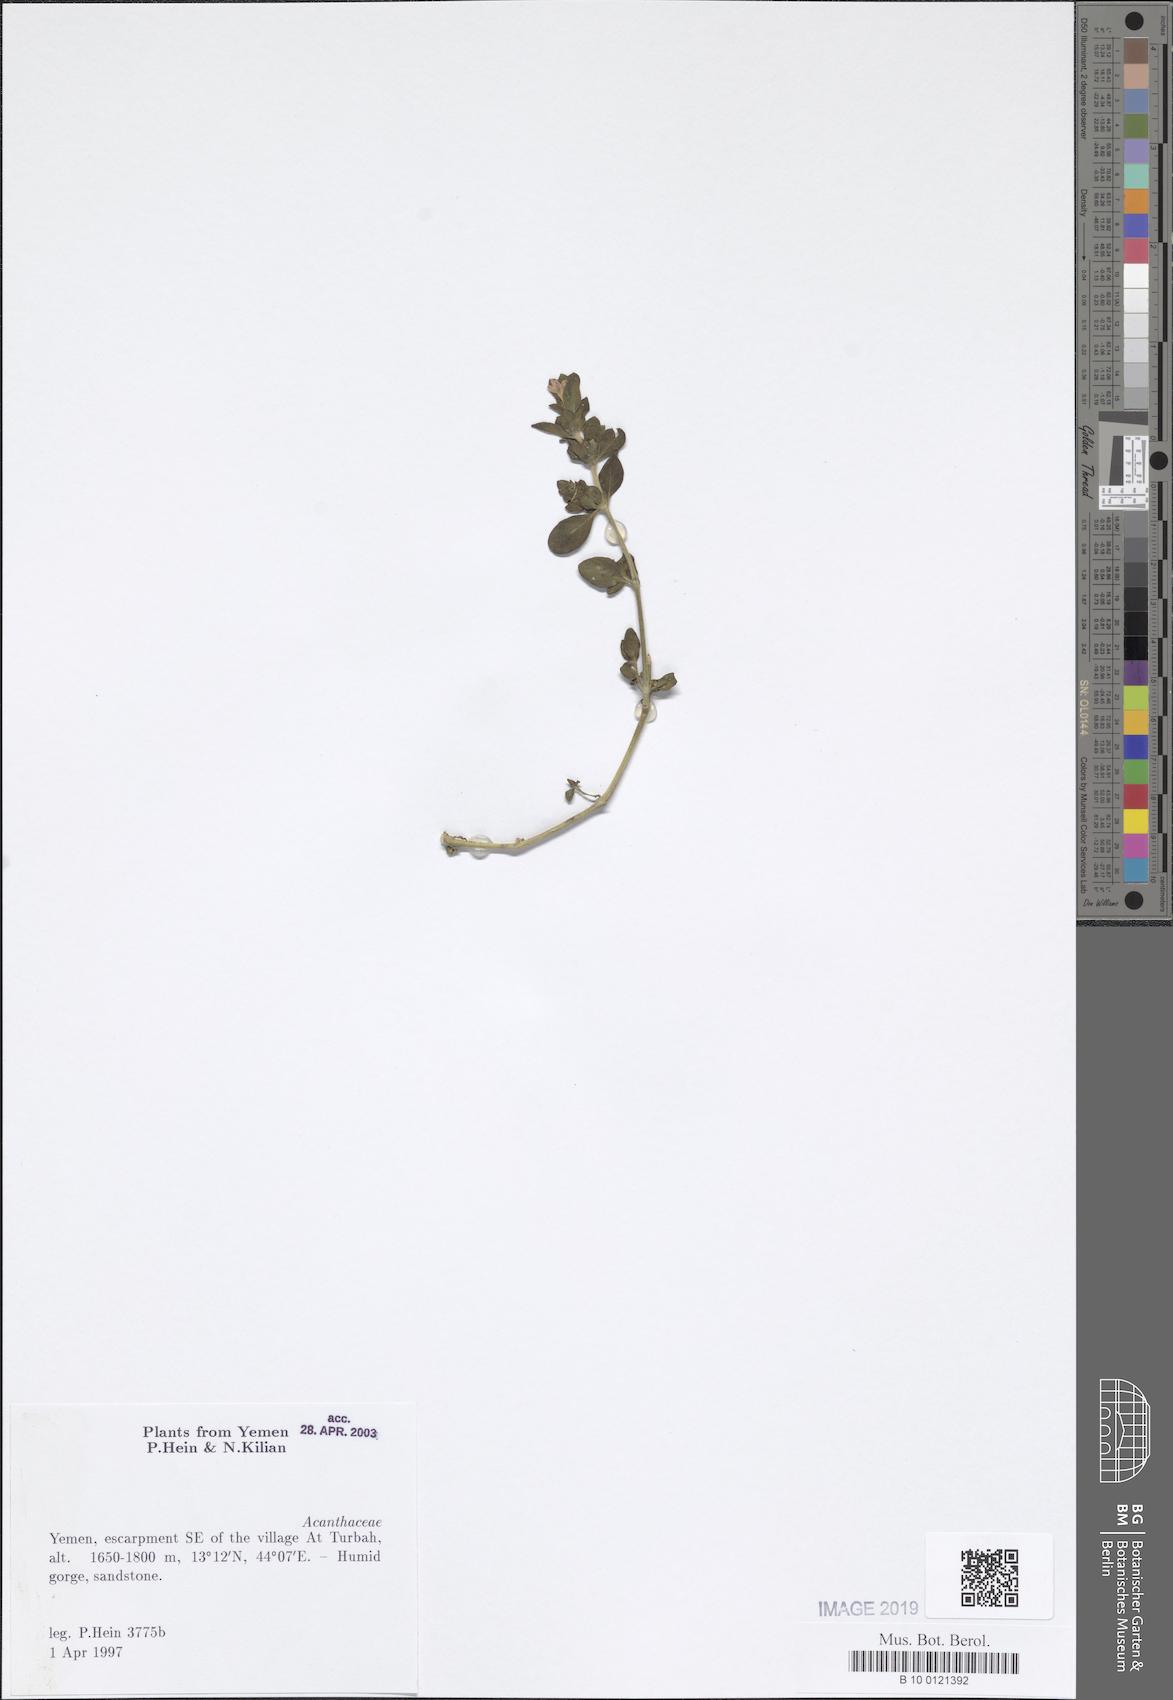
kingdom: Plantae
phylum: Tracheophyta
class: Magnoliopsida
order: Lamiales
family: Acanthaceae
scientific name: Acanthaceae
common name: Acanthaceae
